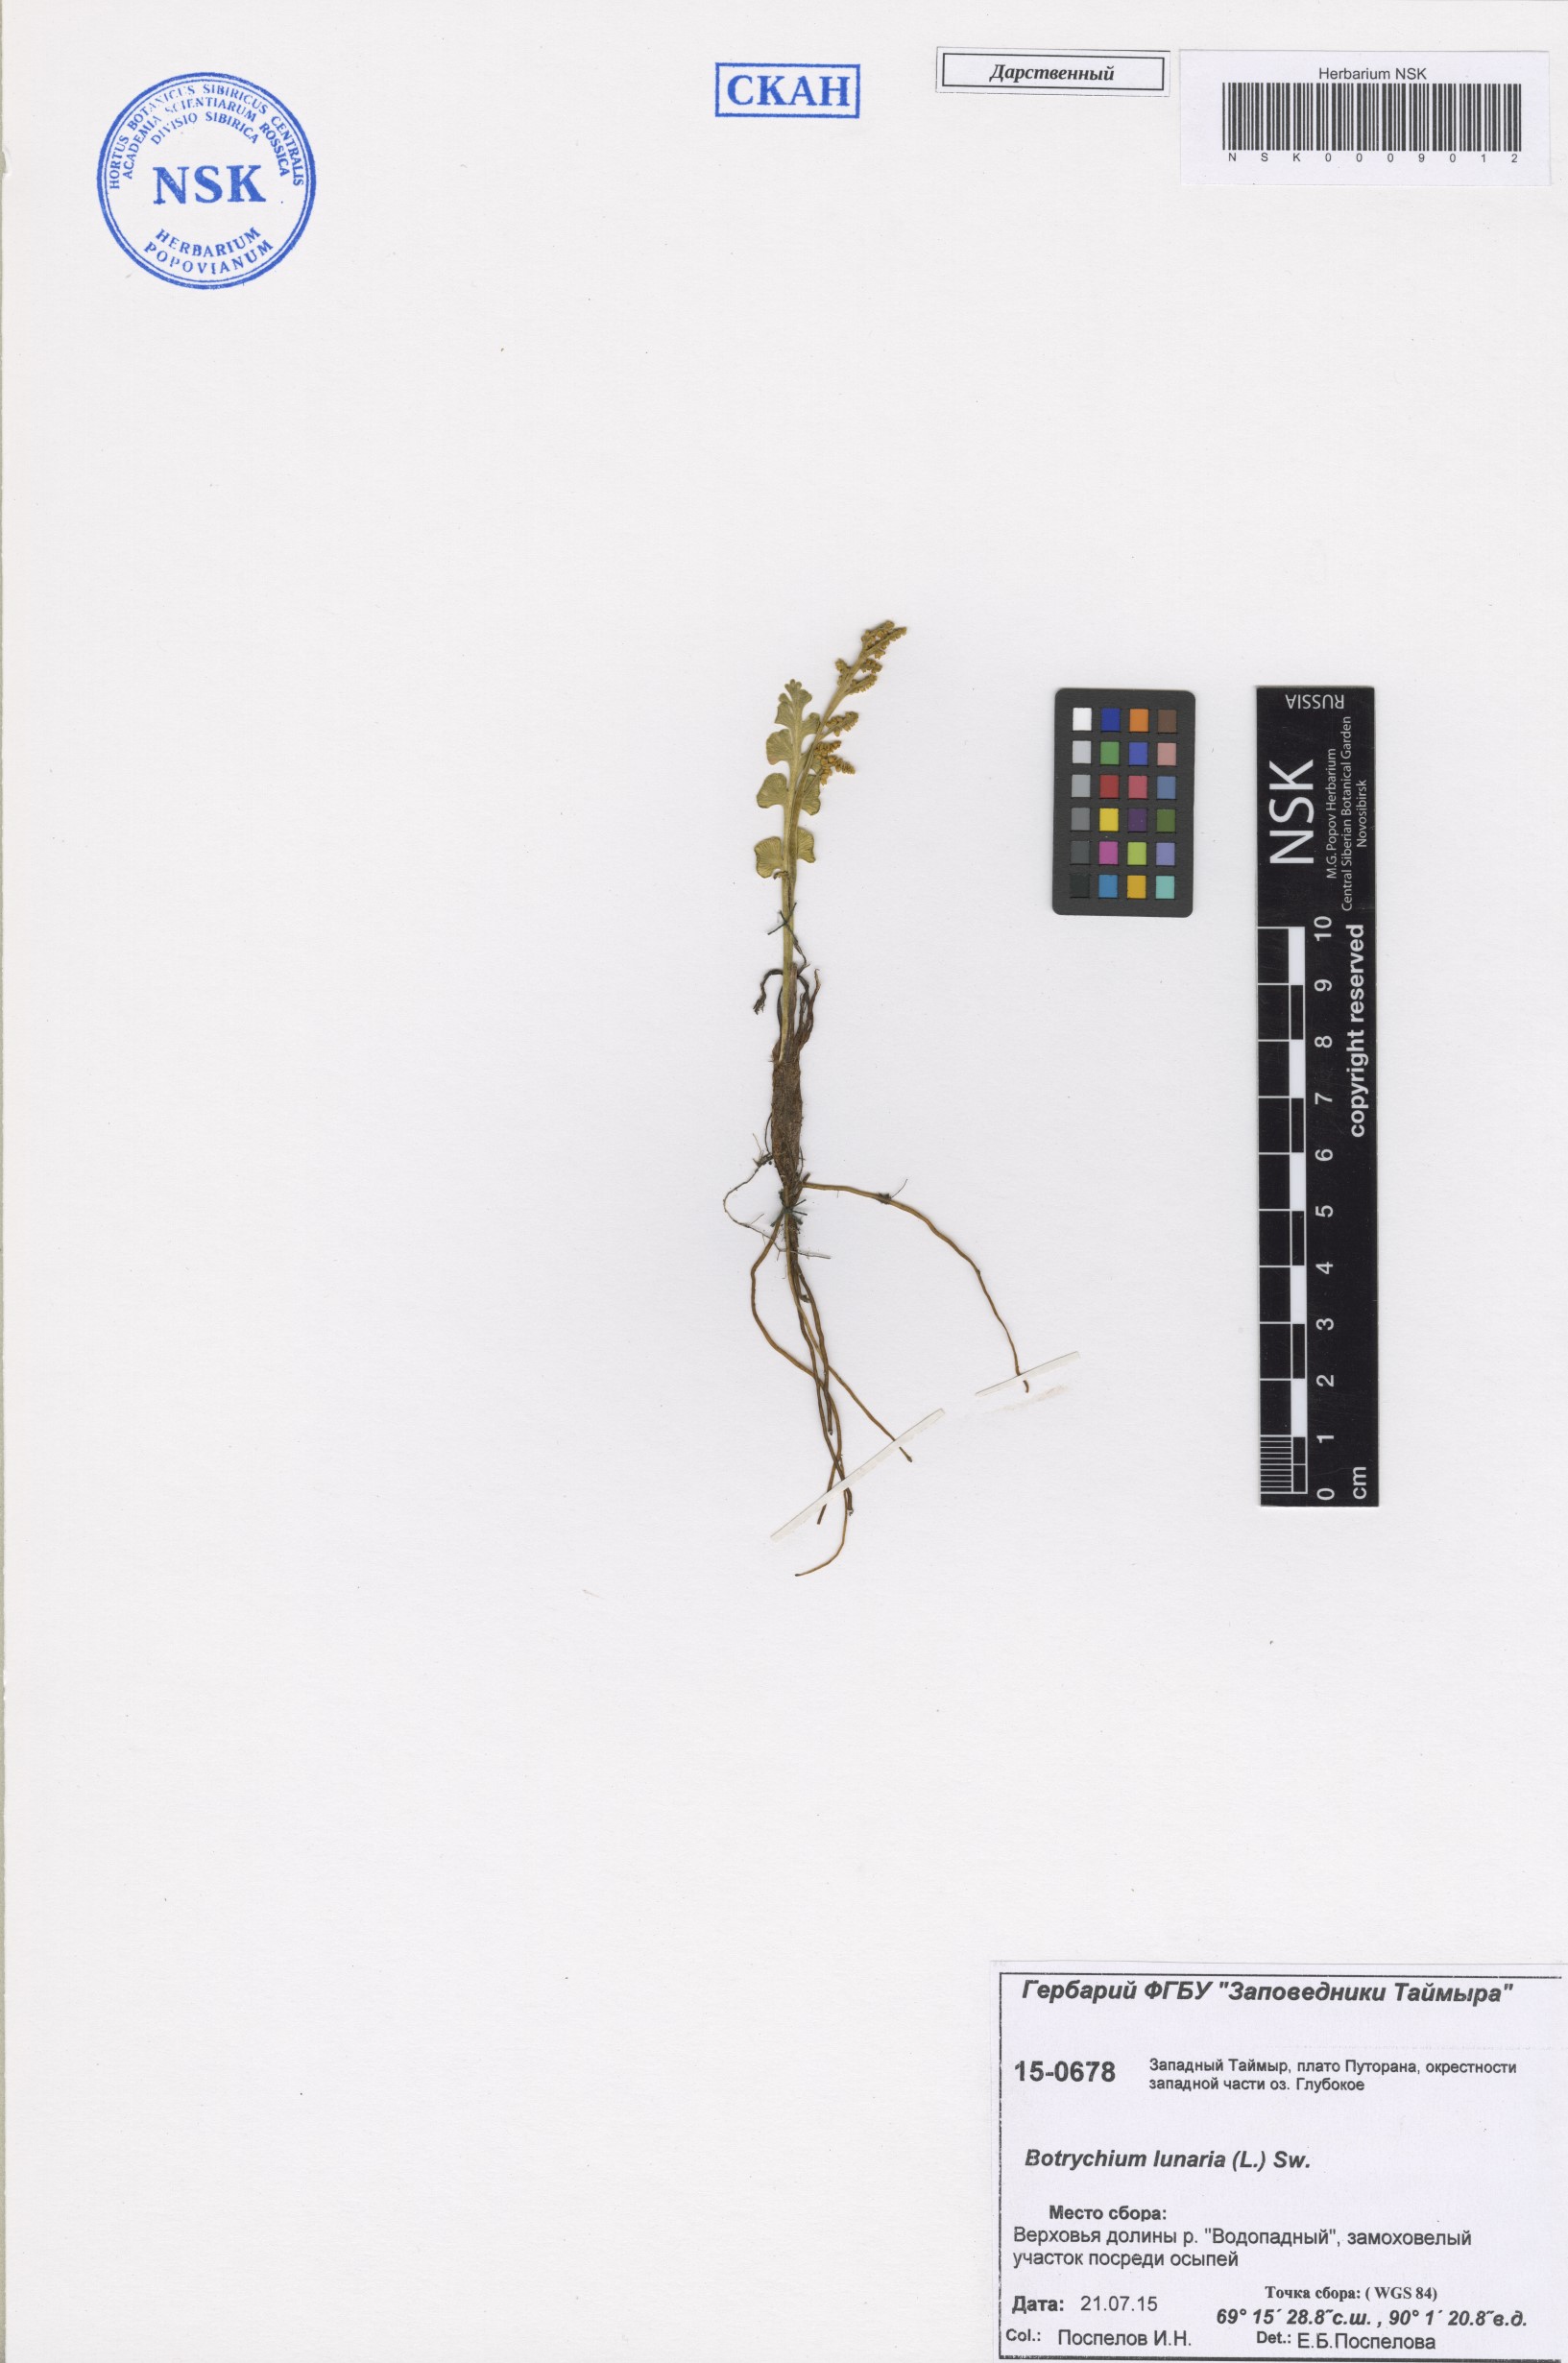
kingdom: Plantae
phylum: Tracheophyta
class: Polypodiopsida
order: Ophioglossales
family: Ophioglossaceae
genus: Botrychium
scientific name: Botrychium lunaria
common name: Moonwort
